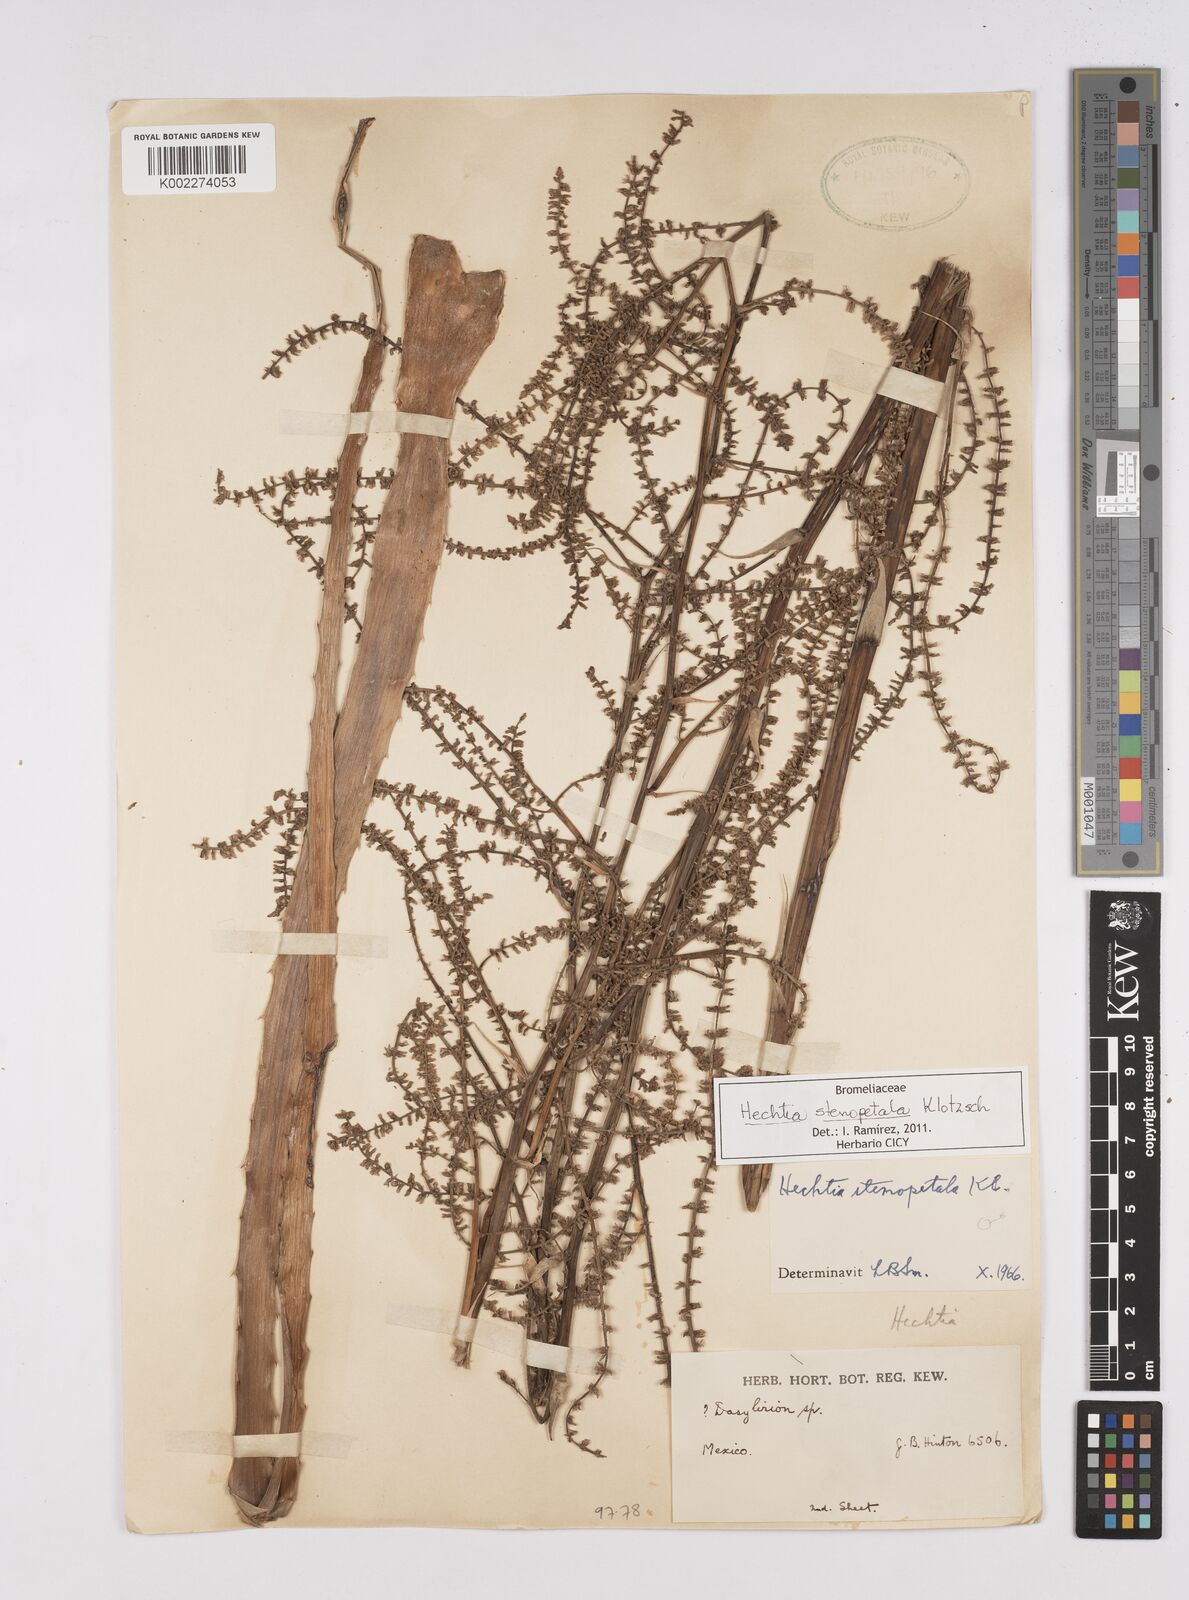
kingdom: Plantae
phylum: Tracheophyta
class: Liliopsida
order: Poales
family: Bromeliaceae
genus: Hechtia
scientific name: Hechtia stenopetala
